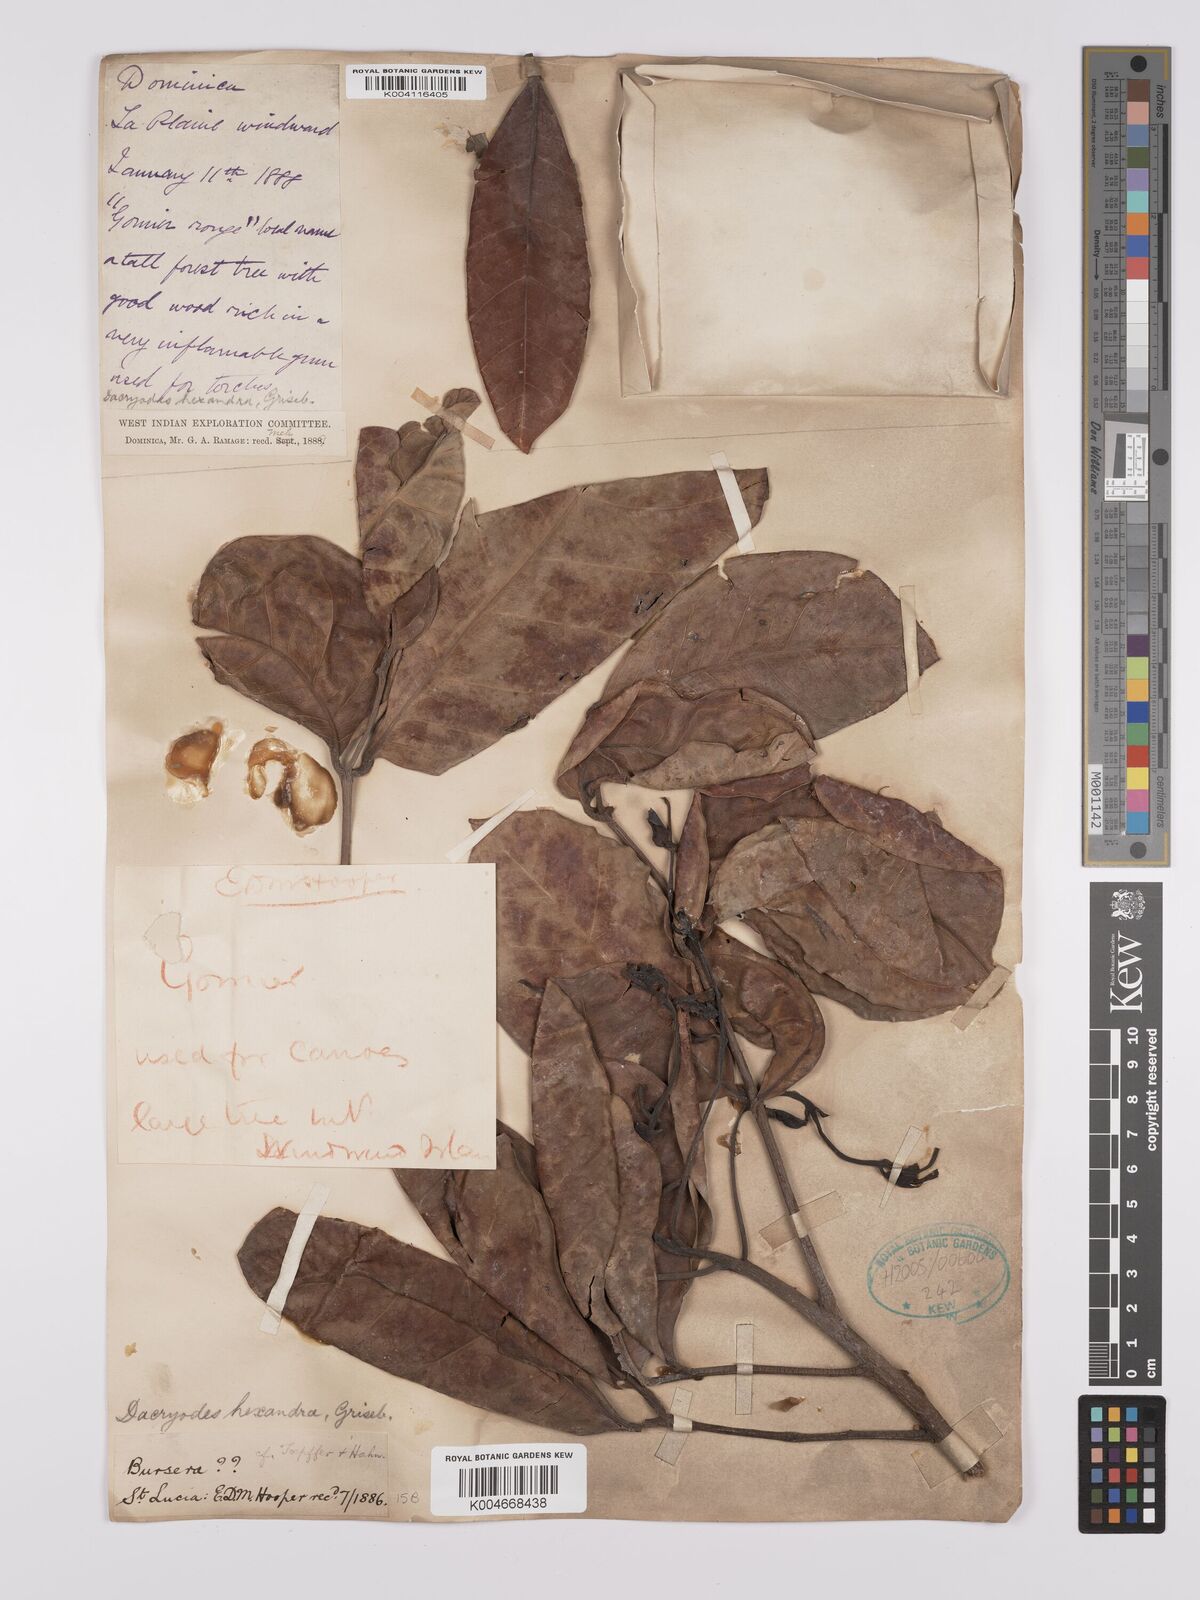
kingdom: Plantae
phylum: Tracheophyta
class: Magnoliopsida
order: Sapindales
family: Burseraceae
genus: Dacryodes
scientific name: Dacryodes excelsa
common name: Candlewood
